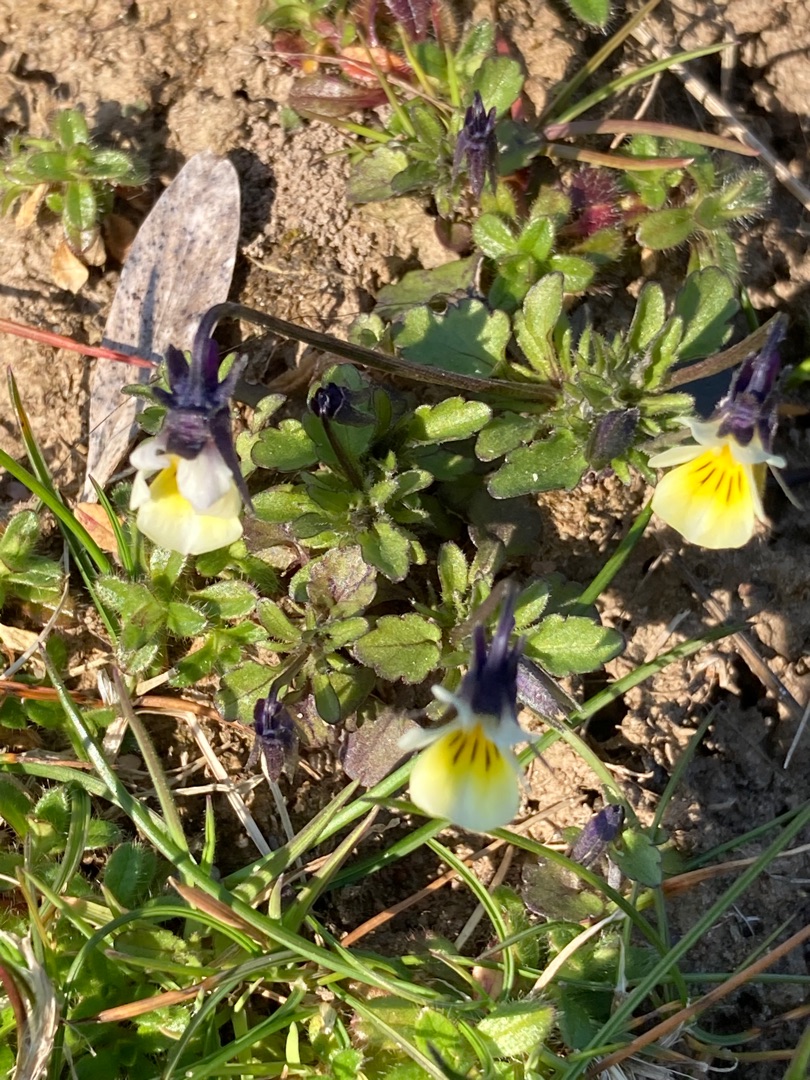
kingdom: Plantae
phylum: Tracheophyta
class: Magnoliopsida
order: Malpighiales
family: Violaceae
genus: Viola
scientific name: Viola arvensis
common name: Ager-stedmoderblomst
